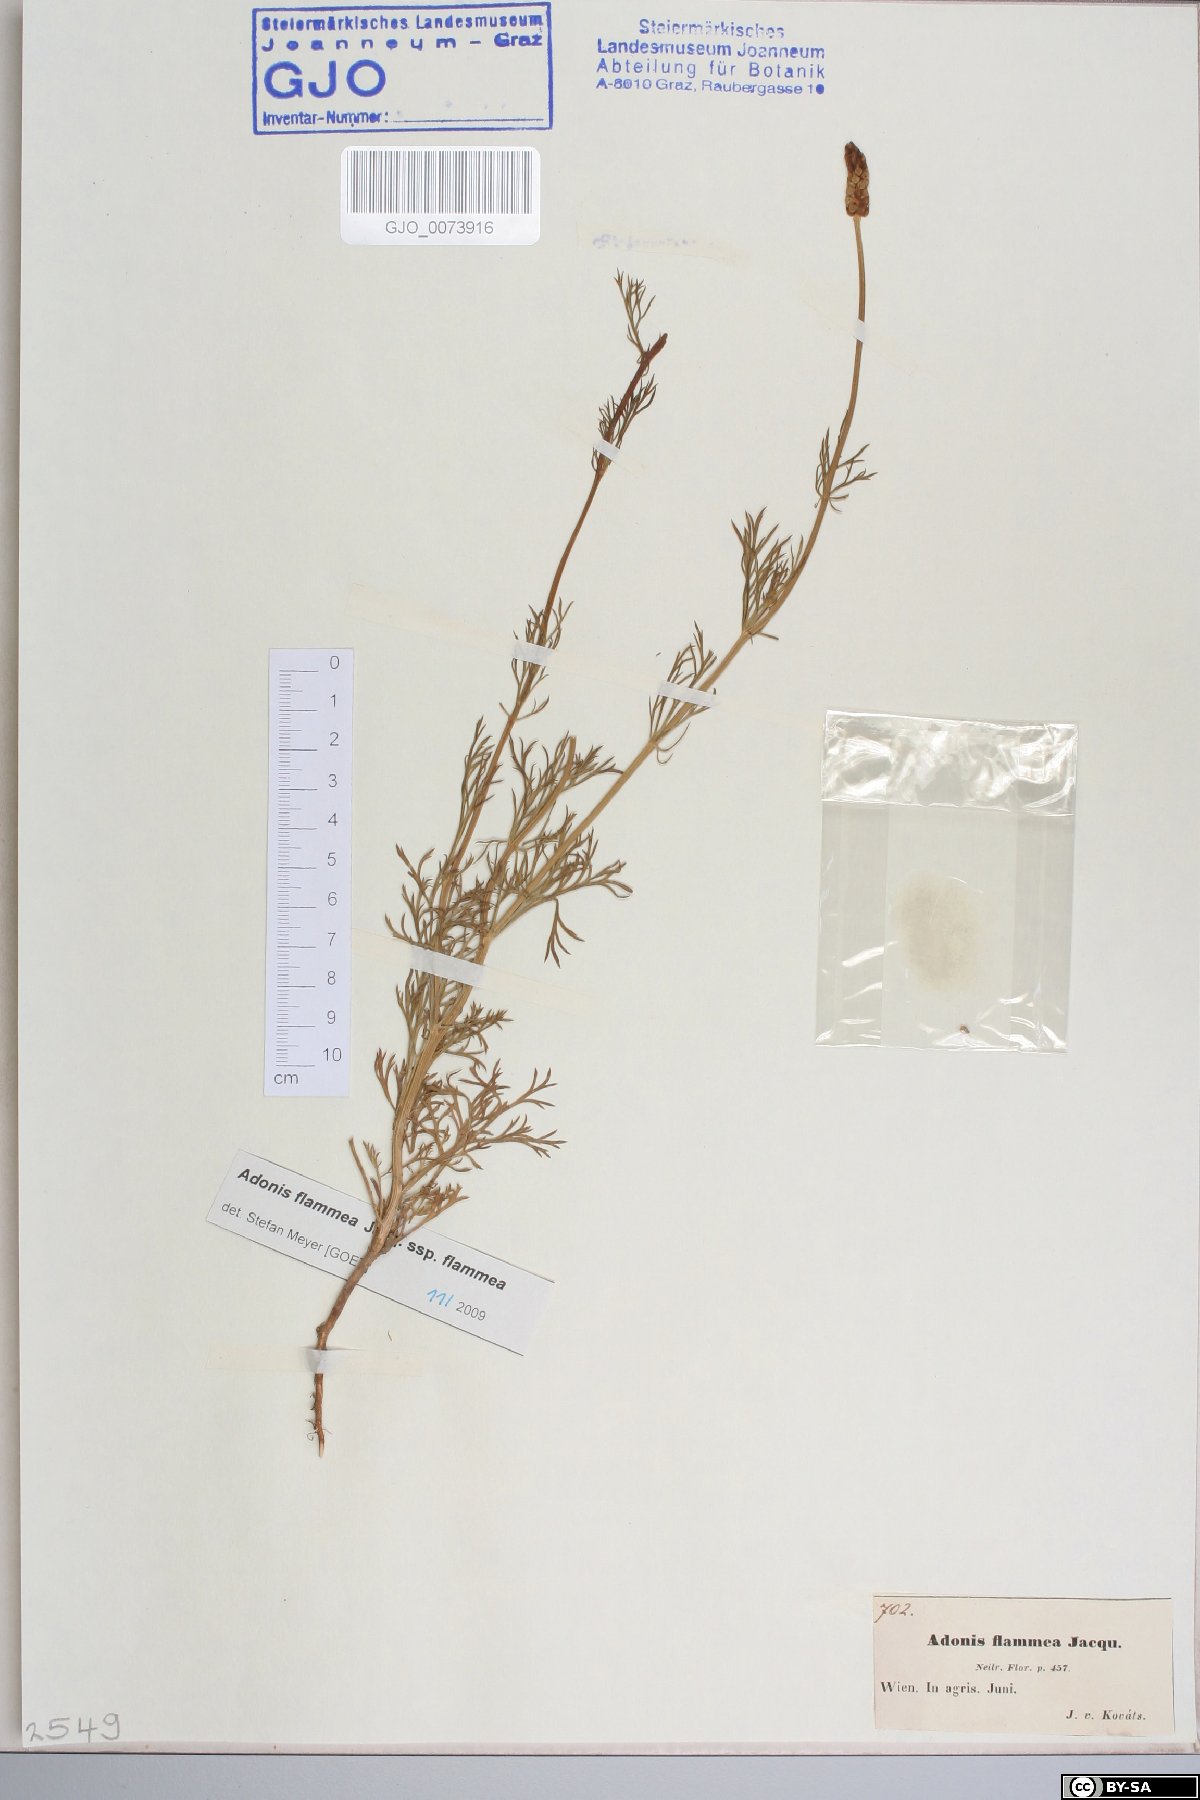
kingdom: Plantae
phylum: Tracheophyta
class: Magnoliopsida
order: Ranunculales
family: Ranunculaceae
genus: Adonis
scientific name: Adonis flammea
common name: Large pheasant's-eye
